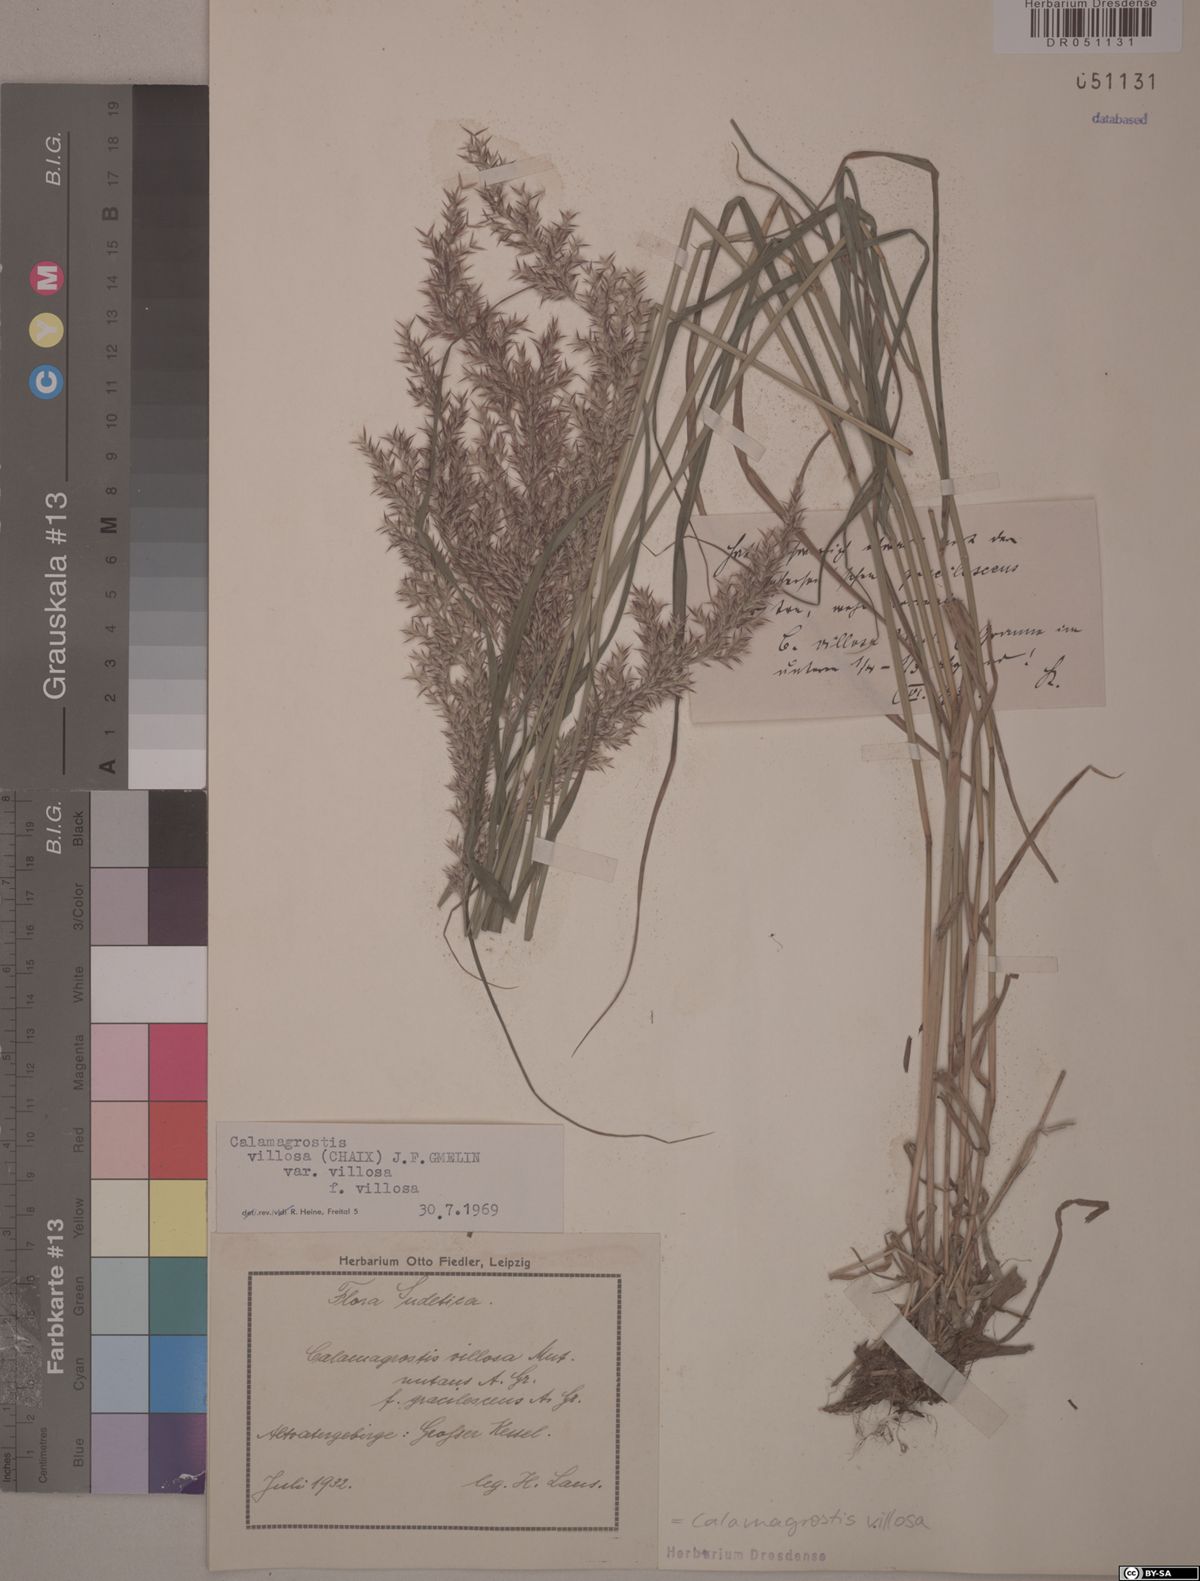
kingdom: Plantae
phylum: Tracheophyta
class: Liliopsida
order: Poales
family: Poaceae
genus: Calamagrostis
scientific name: Calamagrostis villosa
